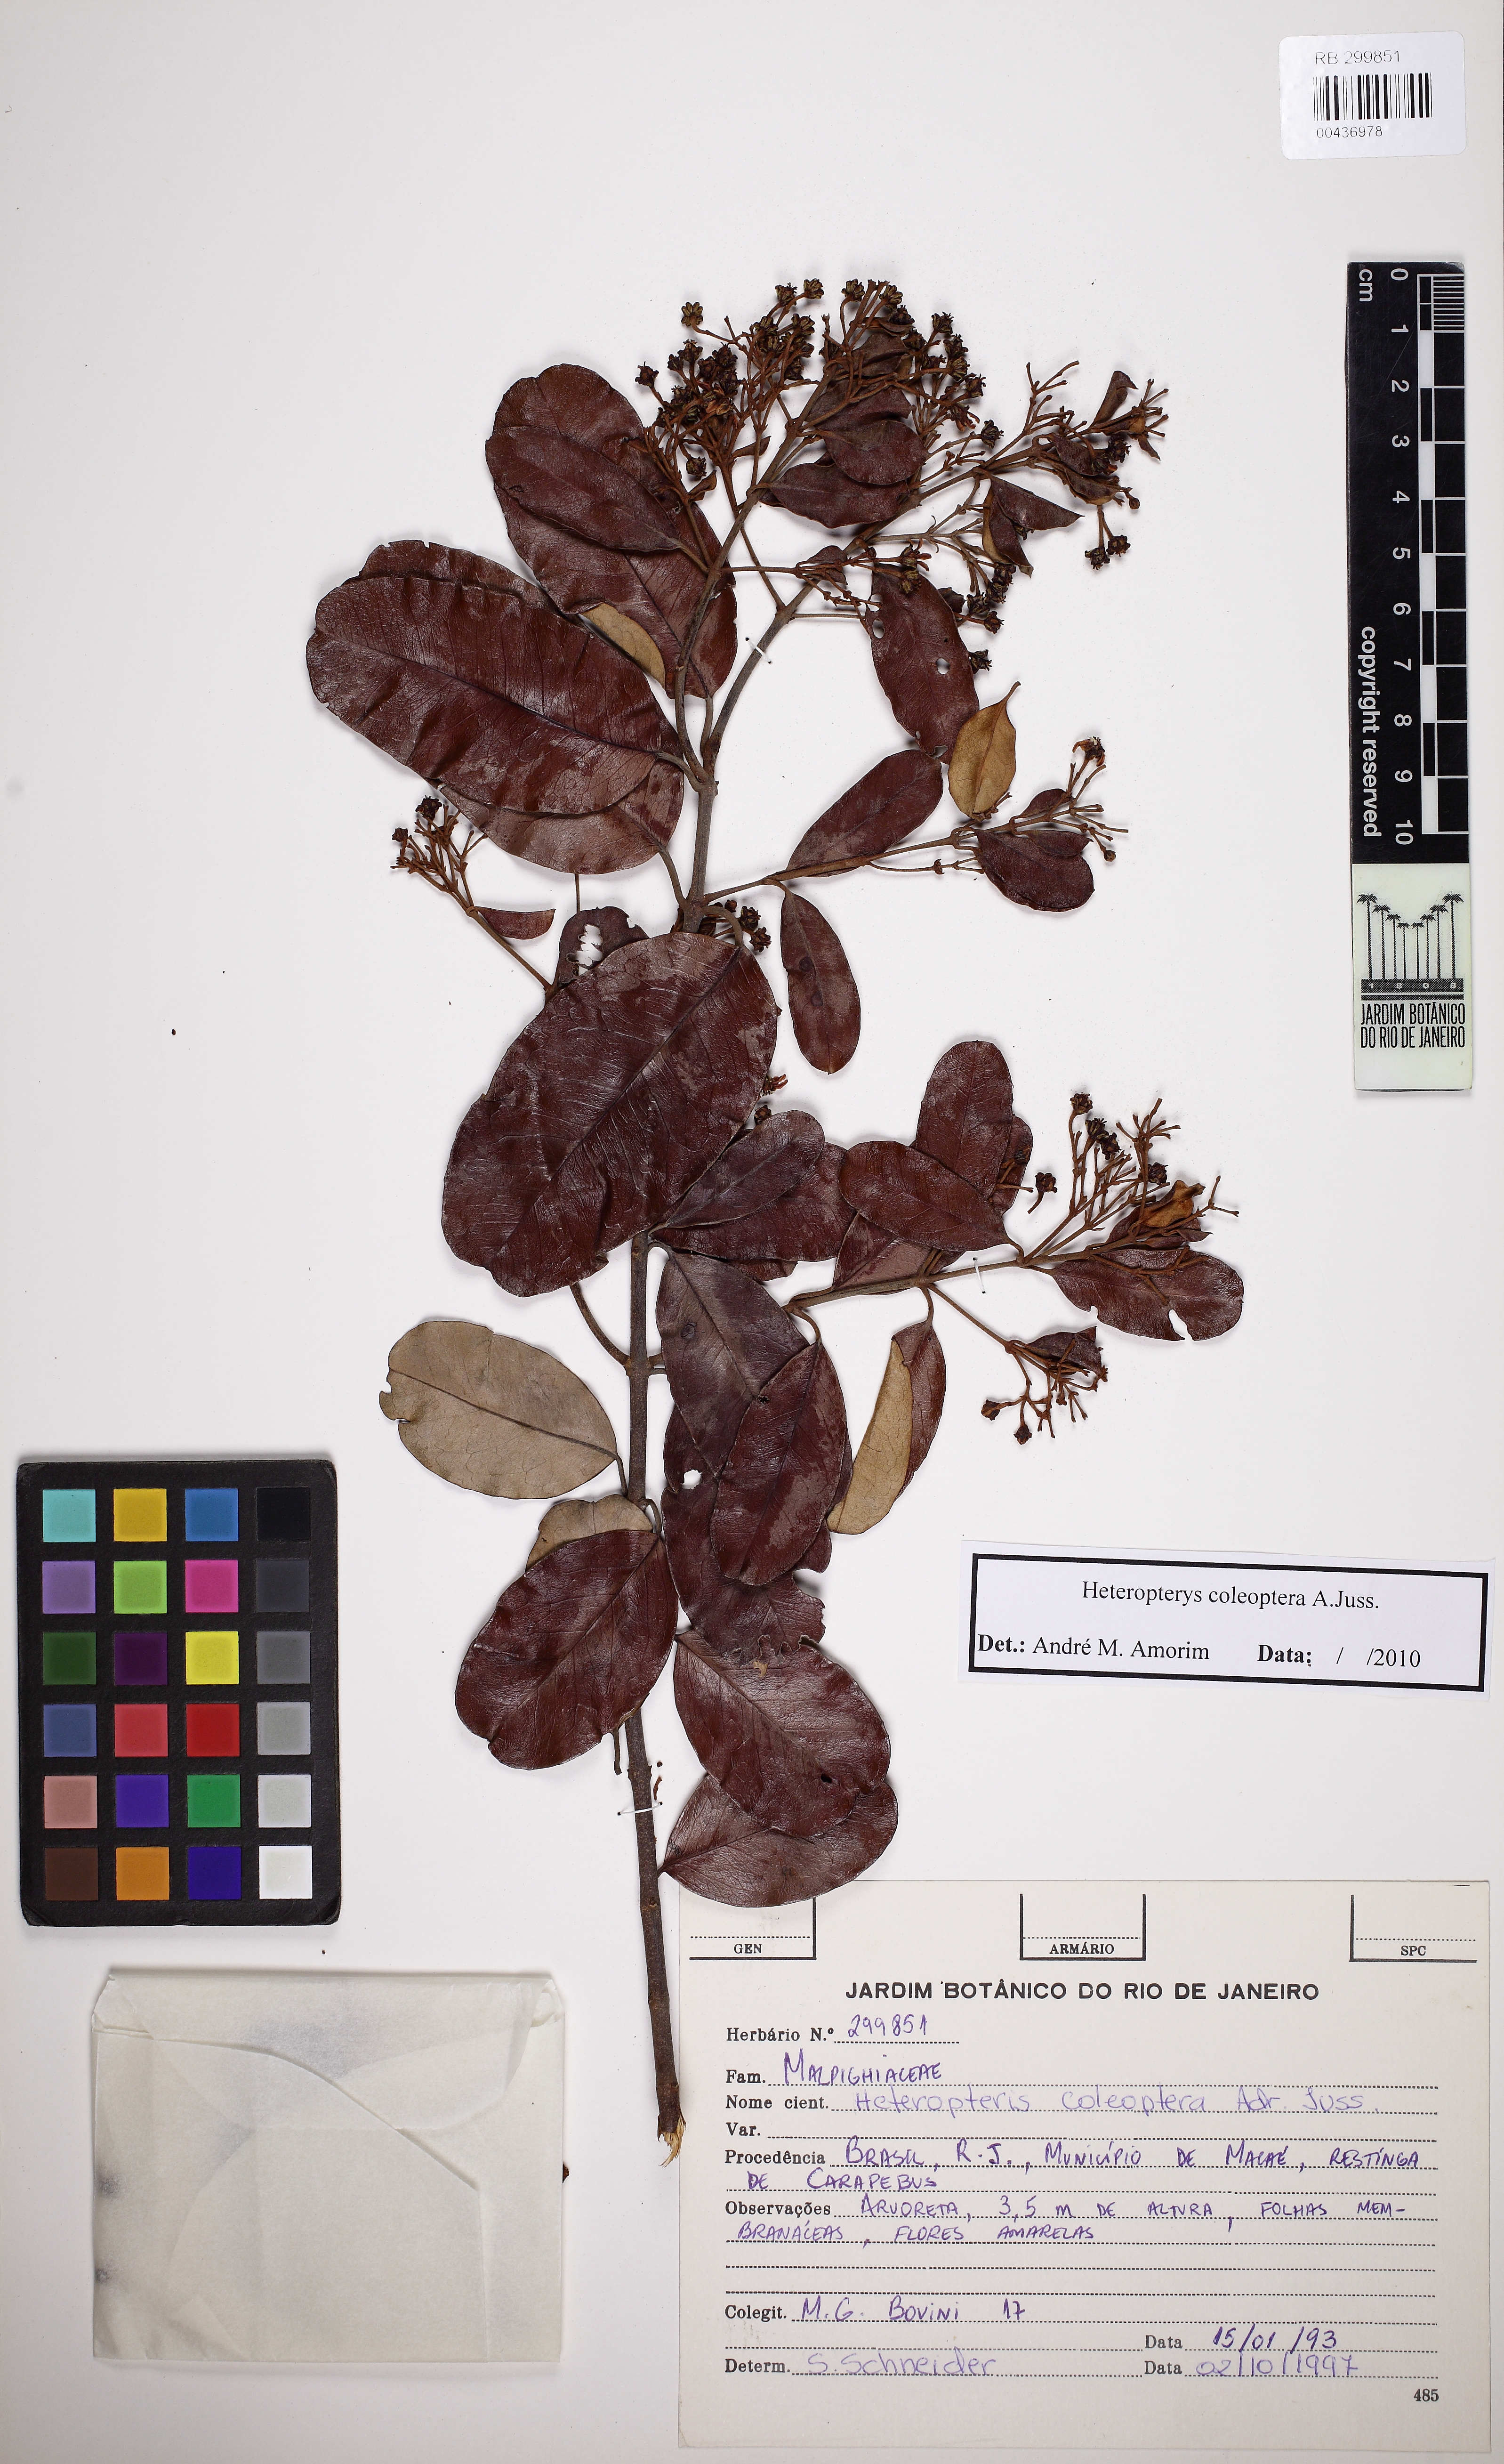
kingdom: Plantae
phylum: Tracheophyta
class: Magnoliopsida
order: Malpighiales
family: Malpighiaceae
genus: Heteropterys
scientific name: Heteropterys coleoptera
